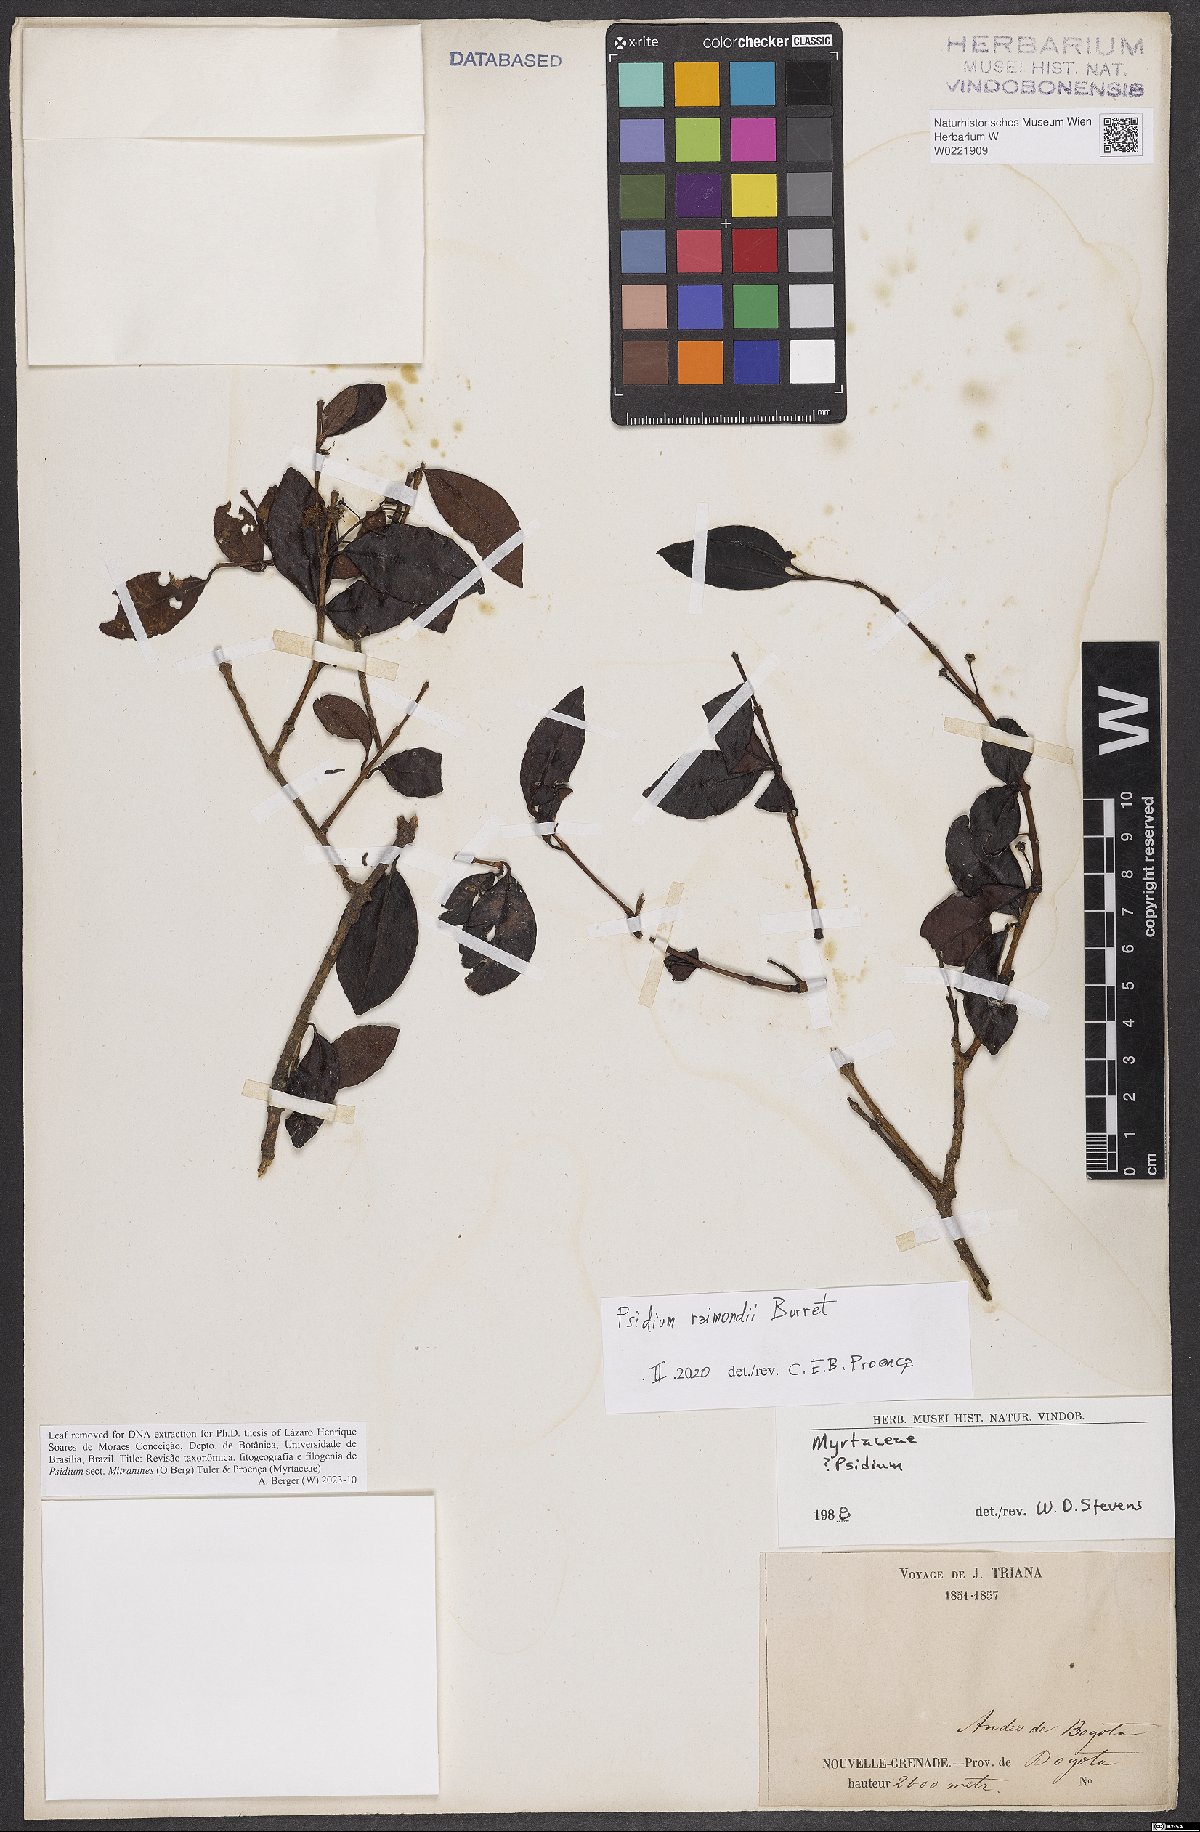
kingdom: Plantae
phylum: Tracheophyta
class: Magnoliopsida
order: Myrtales
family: Myrtaceae
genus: Psidium
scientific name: Psidium raimondii
